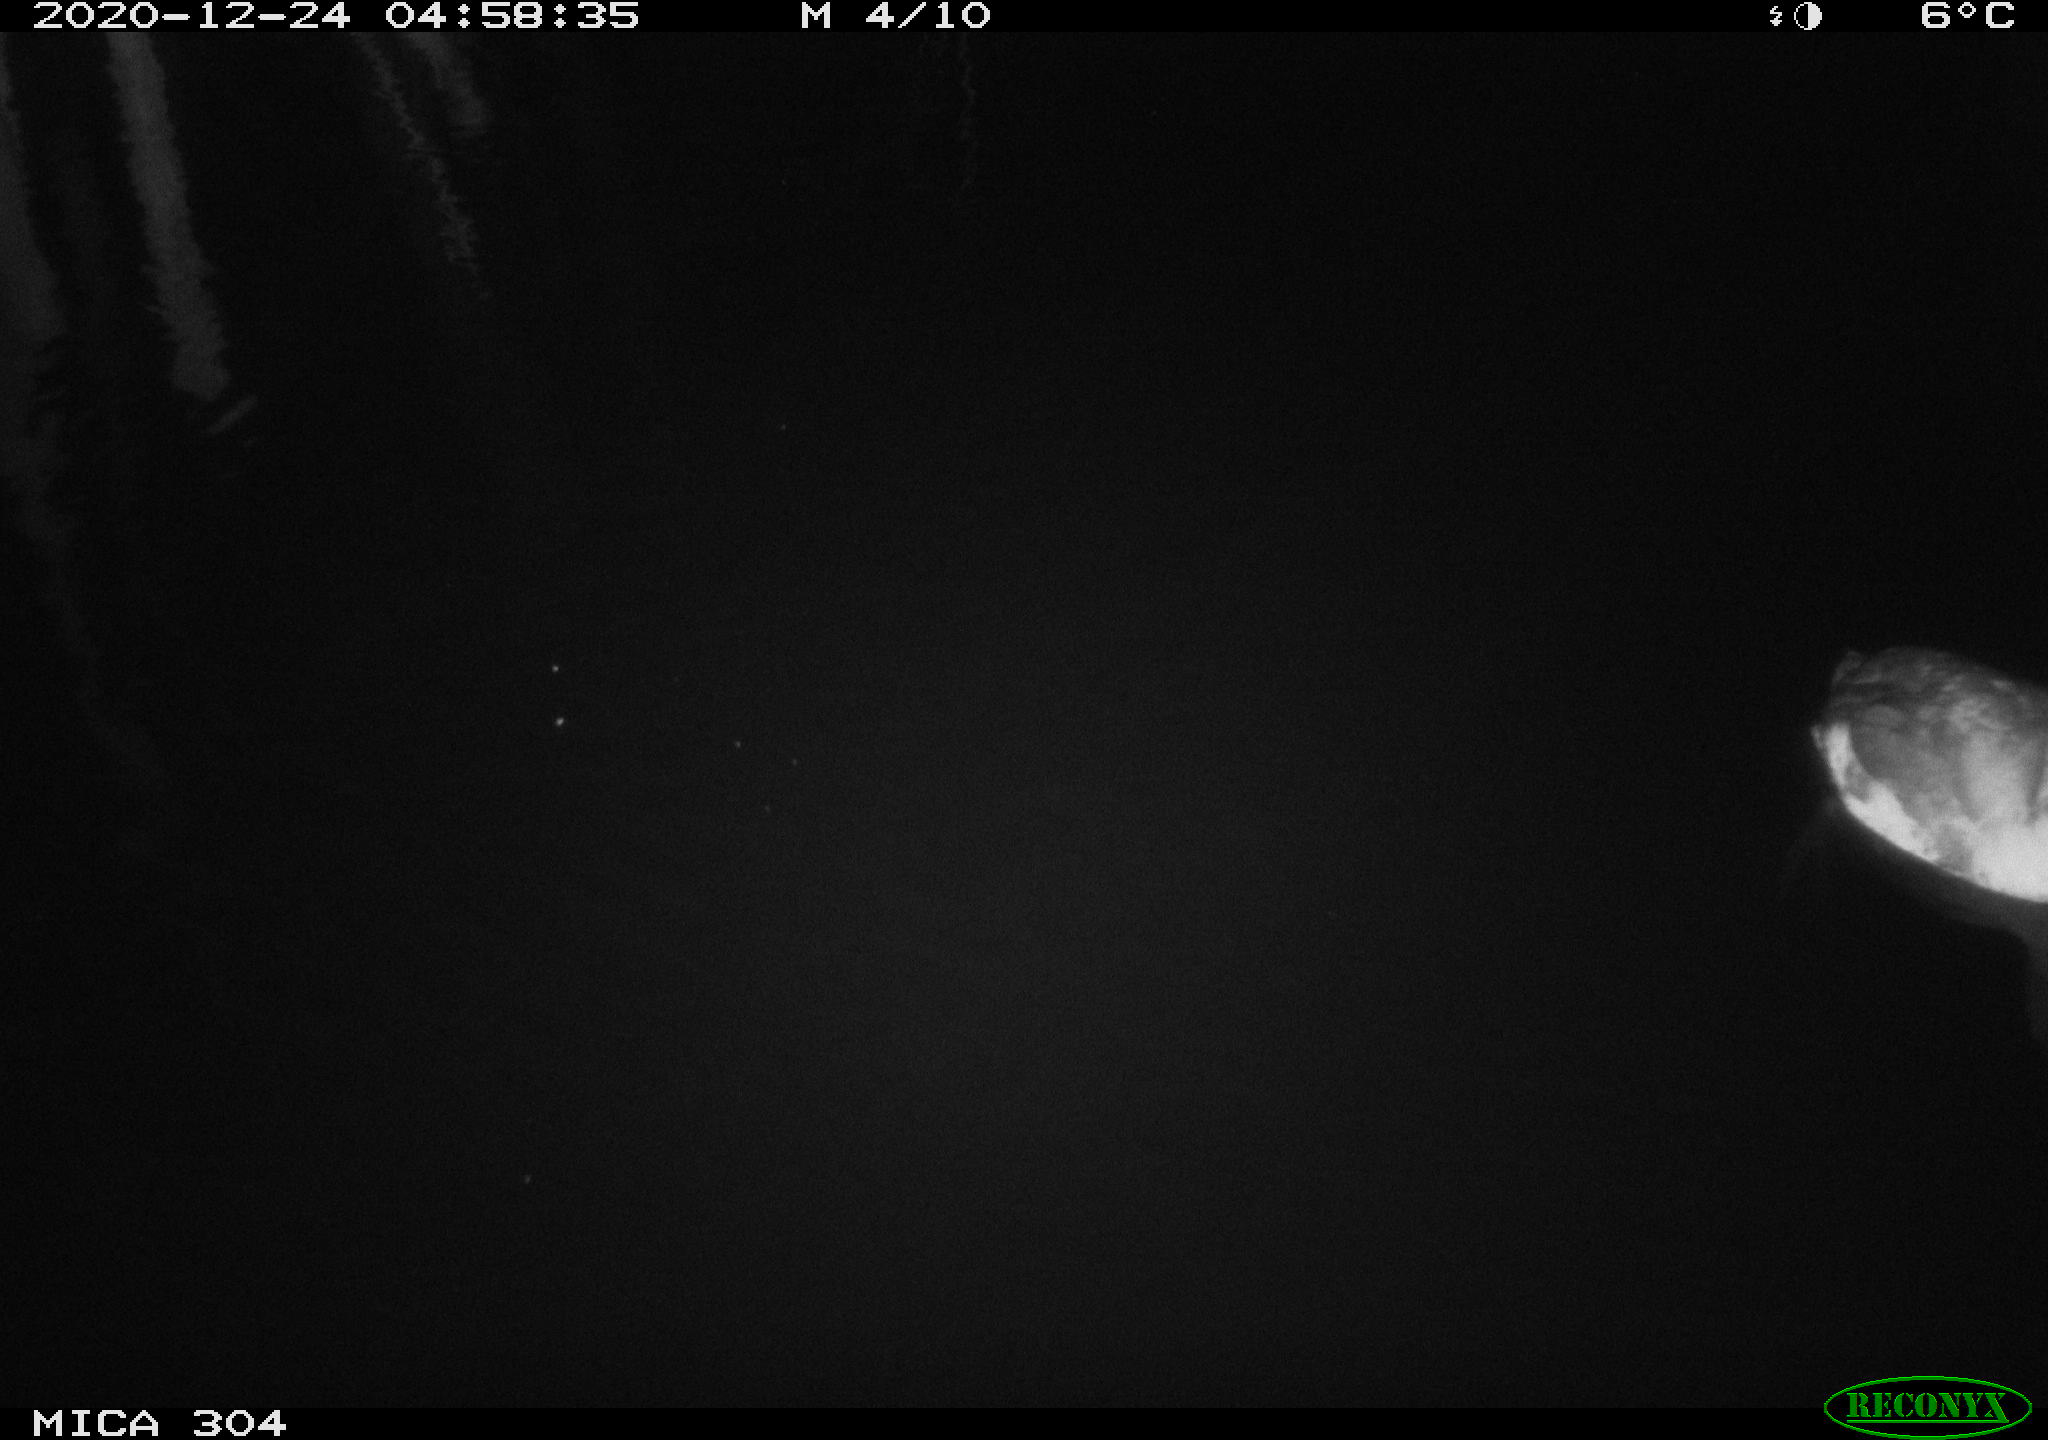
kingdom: Animalia
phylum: Chordata
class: Aves
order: Gruiformes
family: Rallidae
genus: Gallinula
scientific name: Gallinula chloropus
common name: Common moorhen
